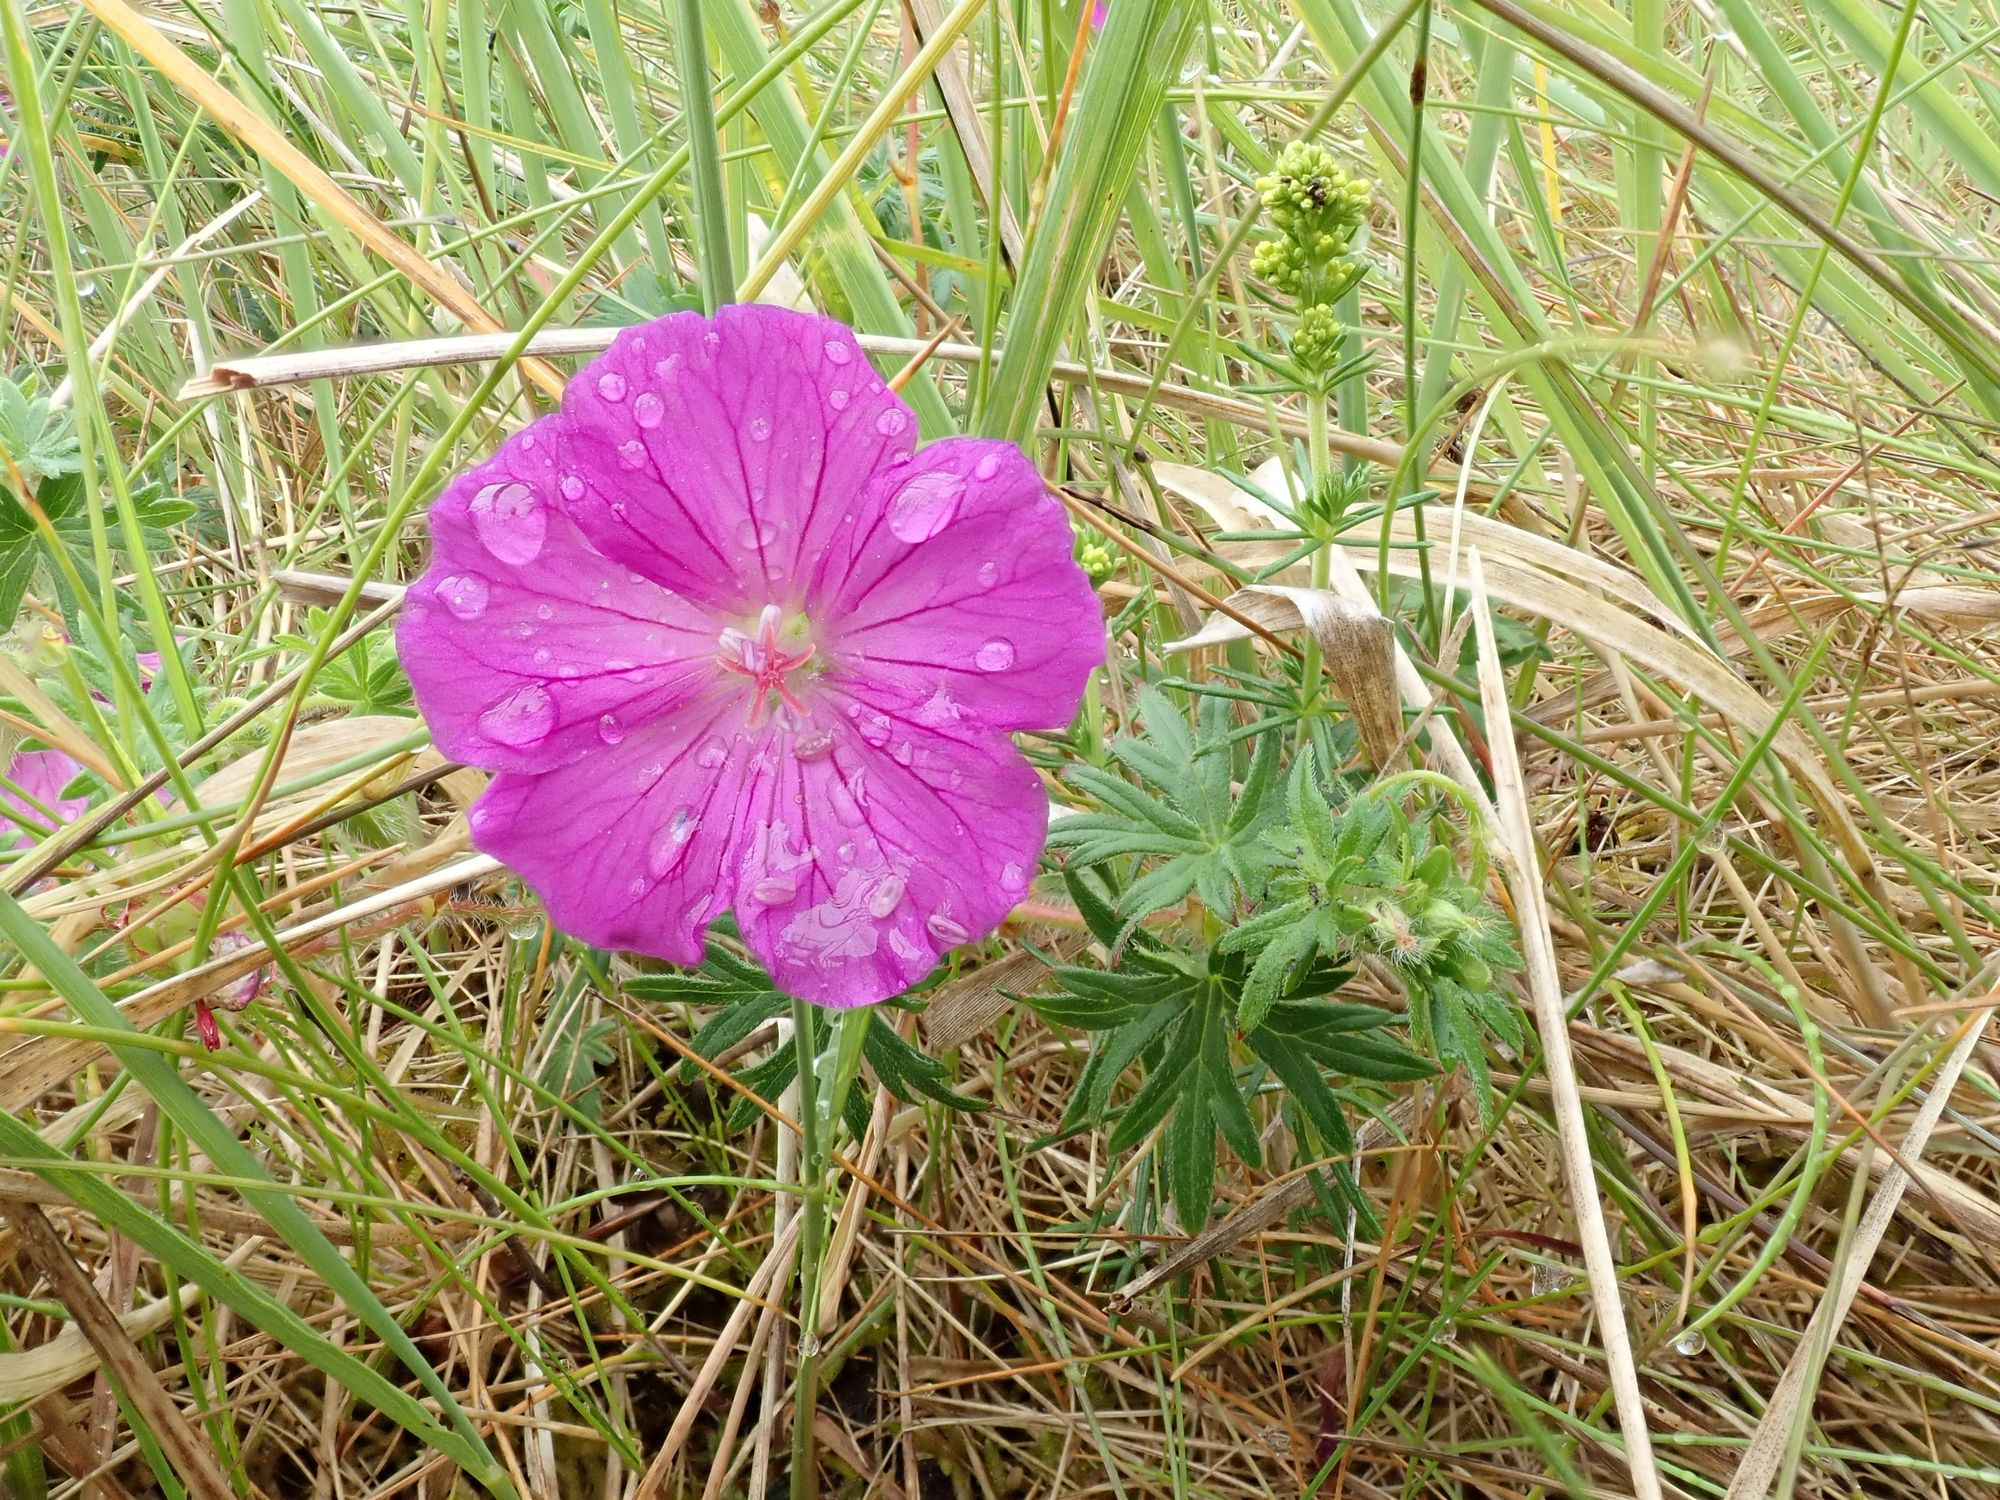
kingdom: Plantae
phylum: Tracheophyta
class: Magnoliopsida
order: Geraniales
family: Geraniaceae
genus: Geranium
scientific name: Geranium sanguineum
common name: Blodrød storkenæb
